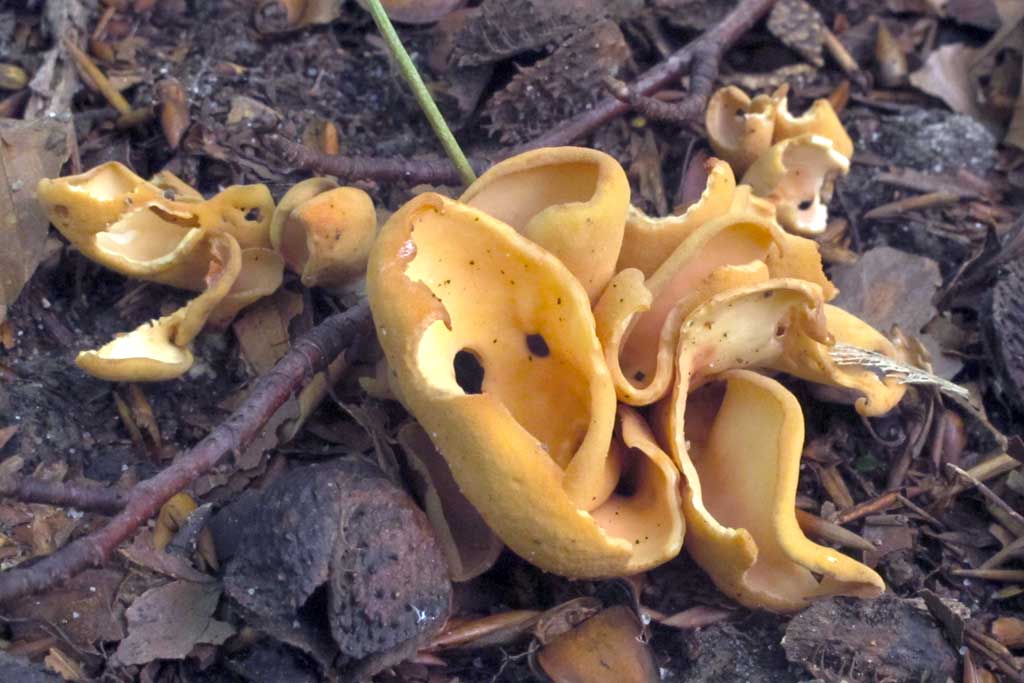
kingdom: Fungi
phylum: Ascomycota
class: Pezizomycetes
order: Pezizales
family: Otideaceae
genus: Otidea
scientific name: Otidea onotica
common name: æsel-ørebæger
